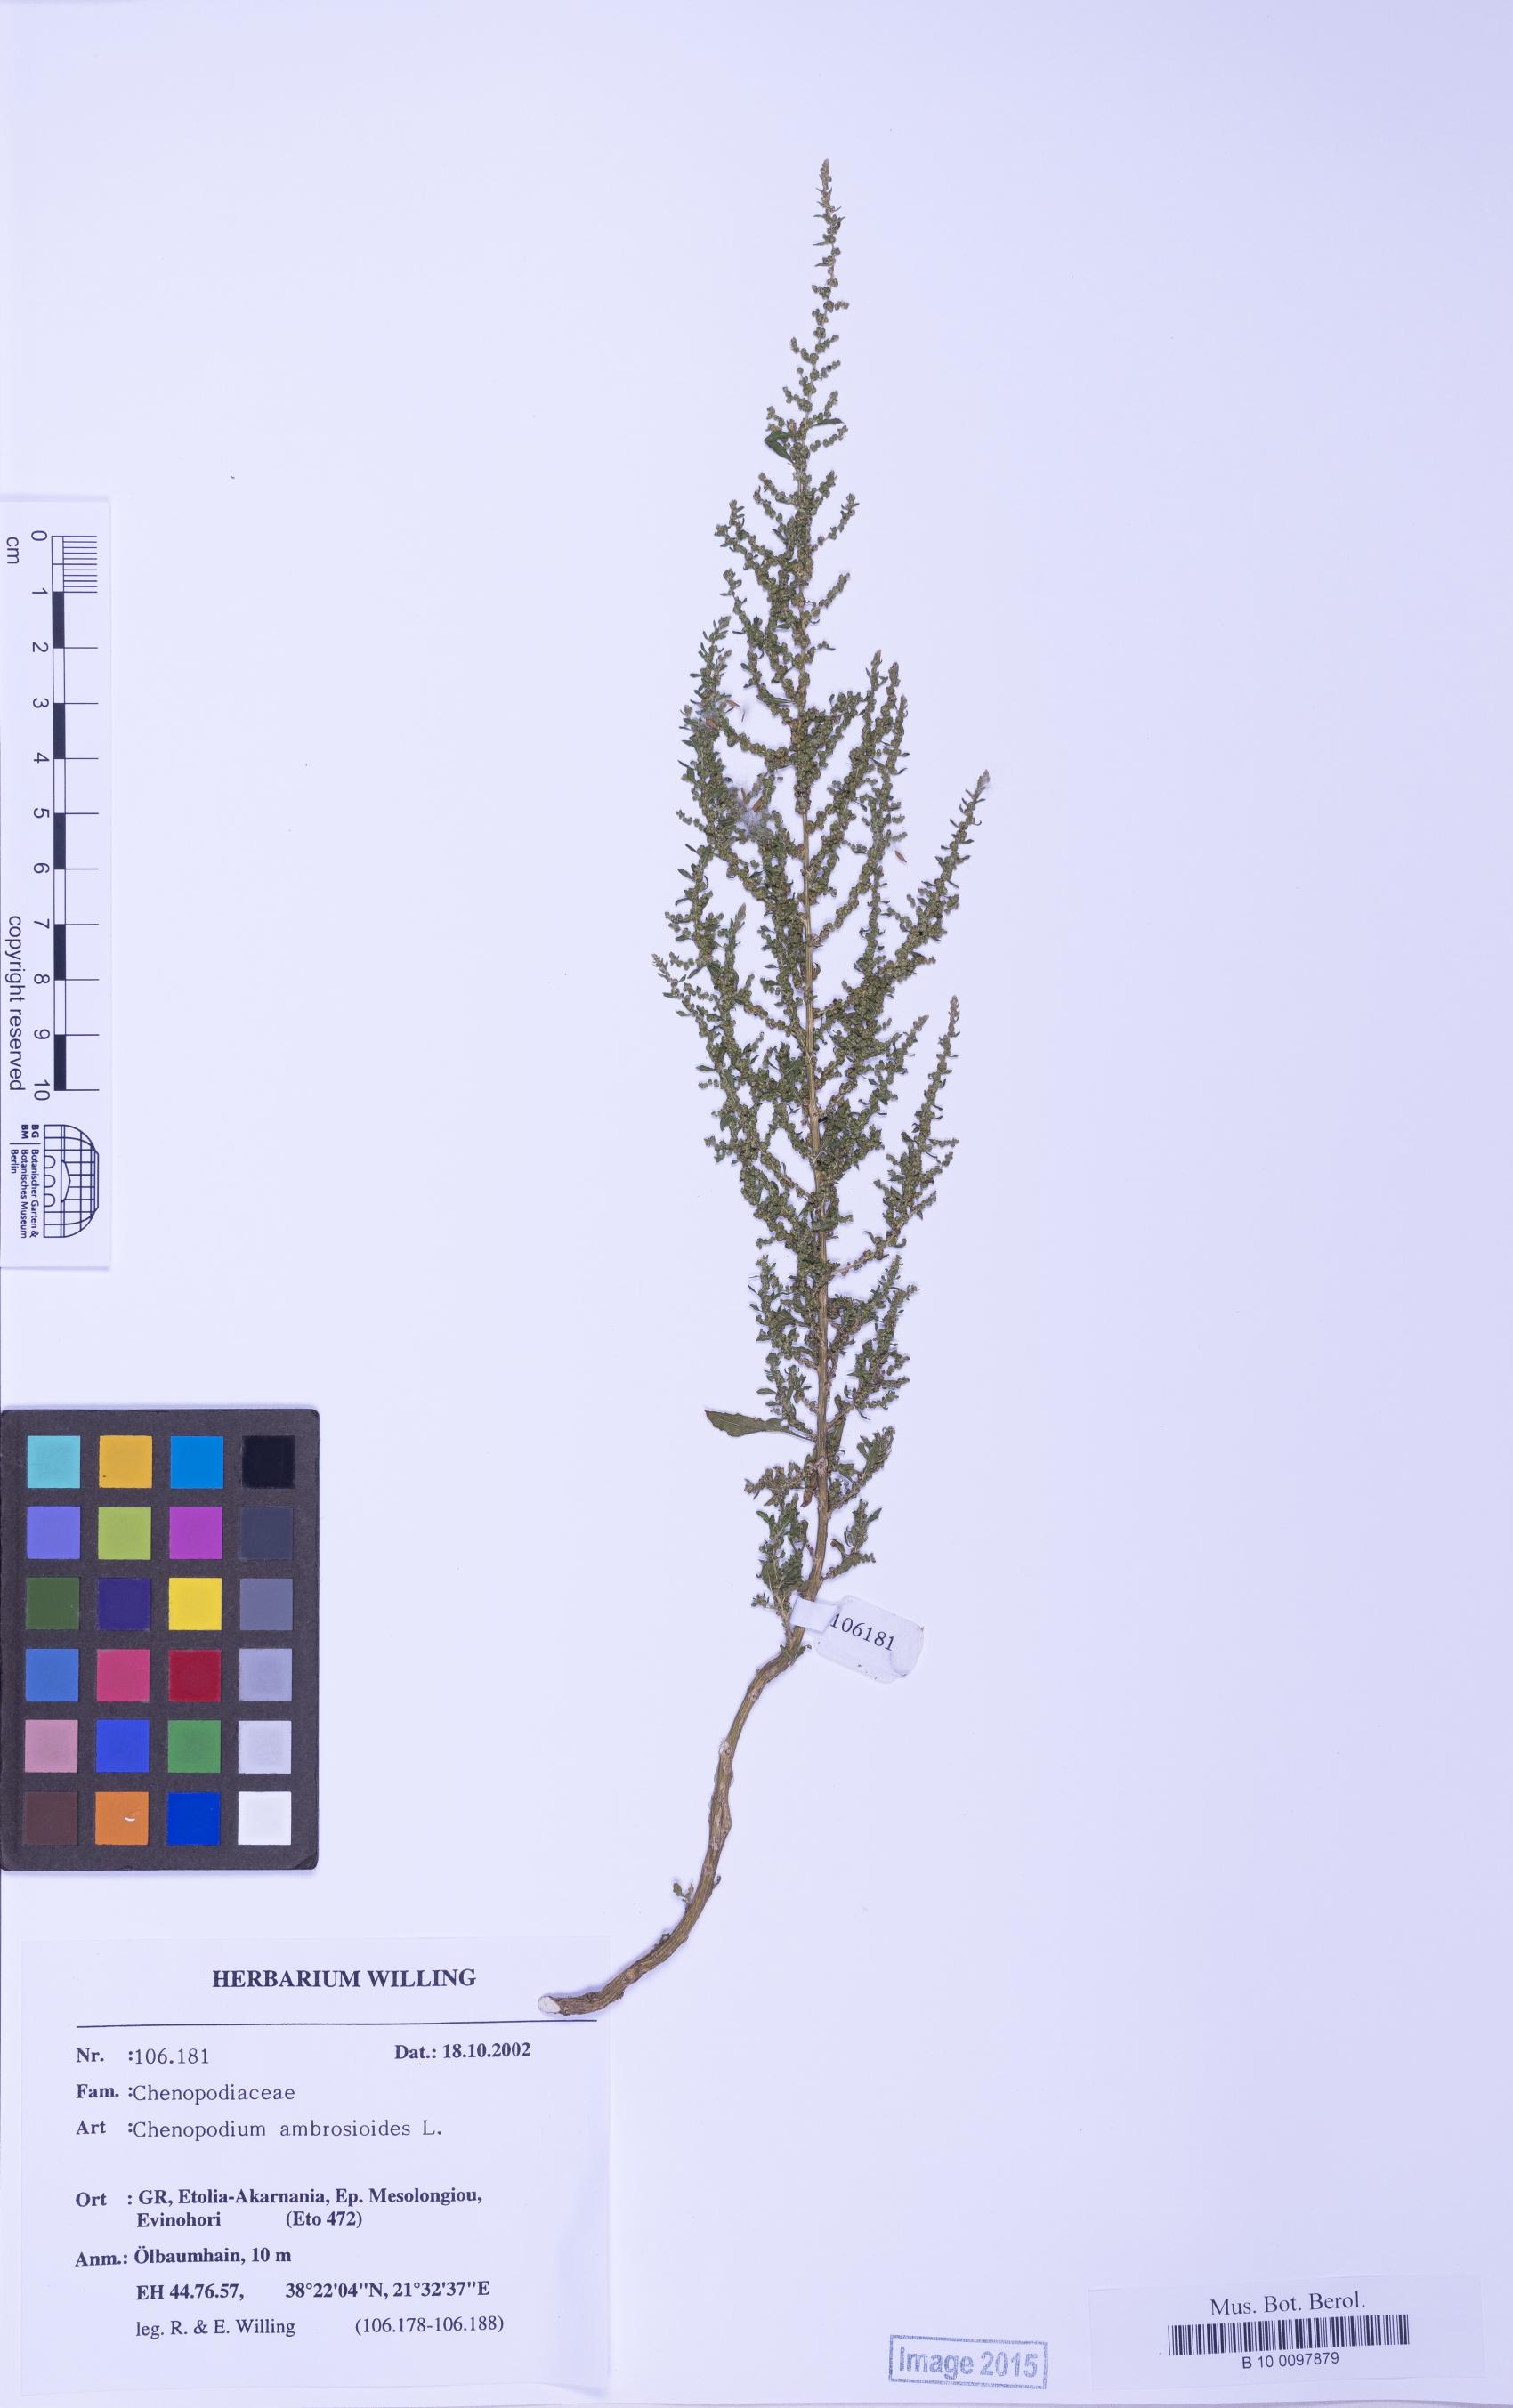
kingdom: Plantae
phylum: Tracheophyta
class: Magnoliopsida
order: Caryophyllales
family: Amaranthaceae
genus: Dysphania
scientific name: Dysphania ambrosioides
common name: Wormseed
